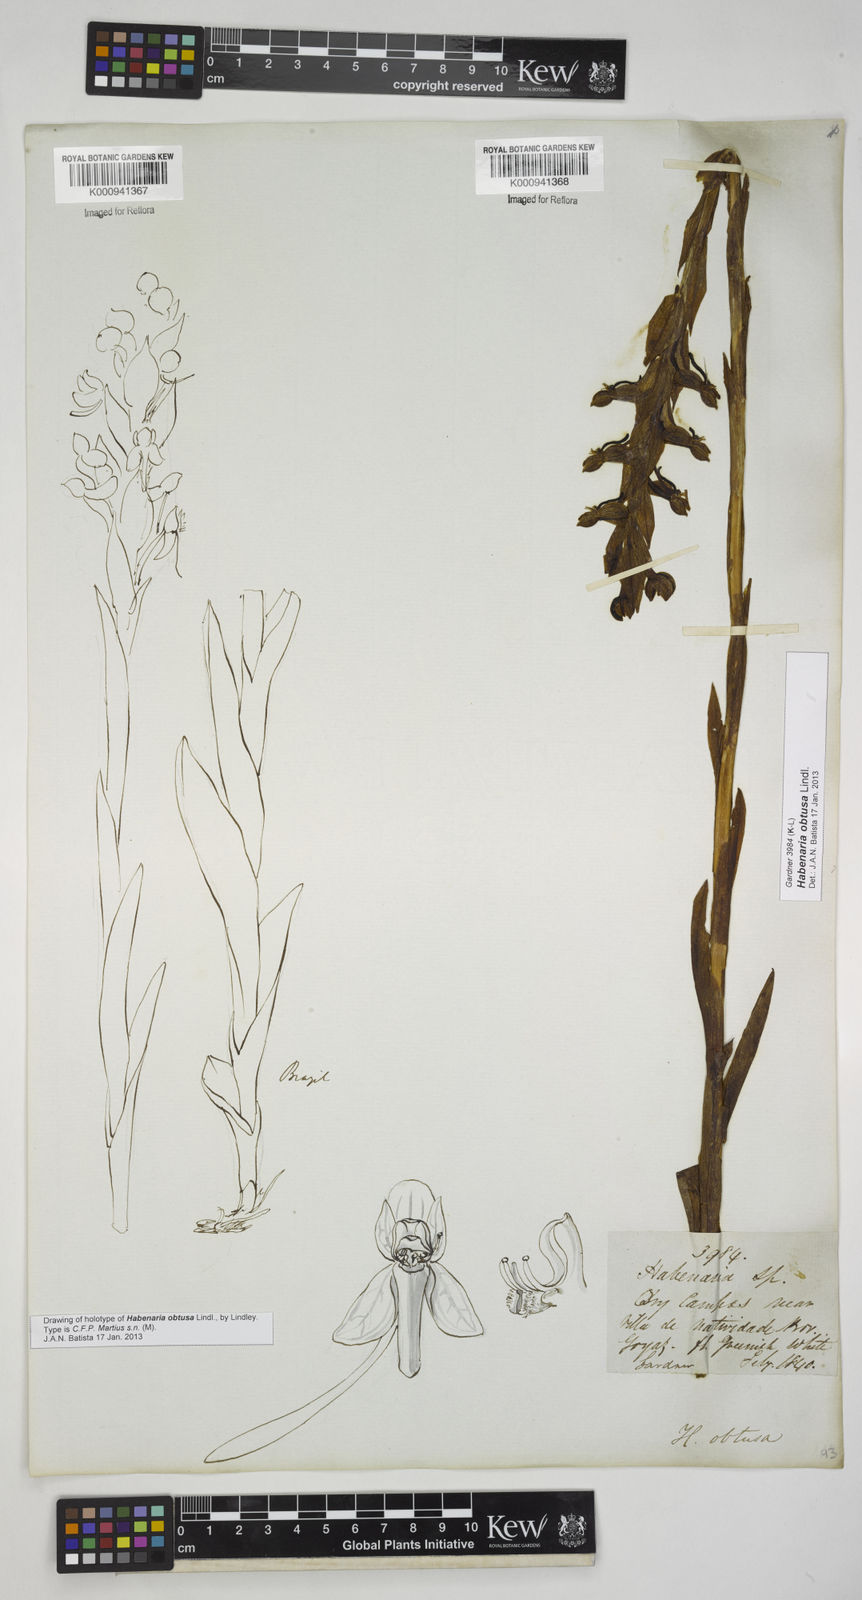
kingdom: Plantae
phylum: Tracheophyta
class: Liliopsida
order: Asparagales
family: Orchidaceae
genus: Habenaria
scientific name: Habenaria obtusa
